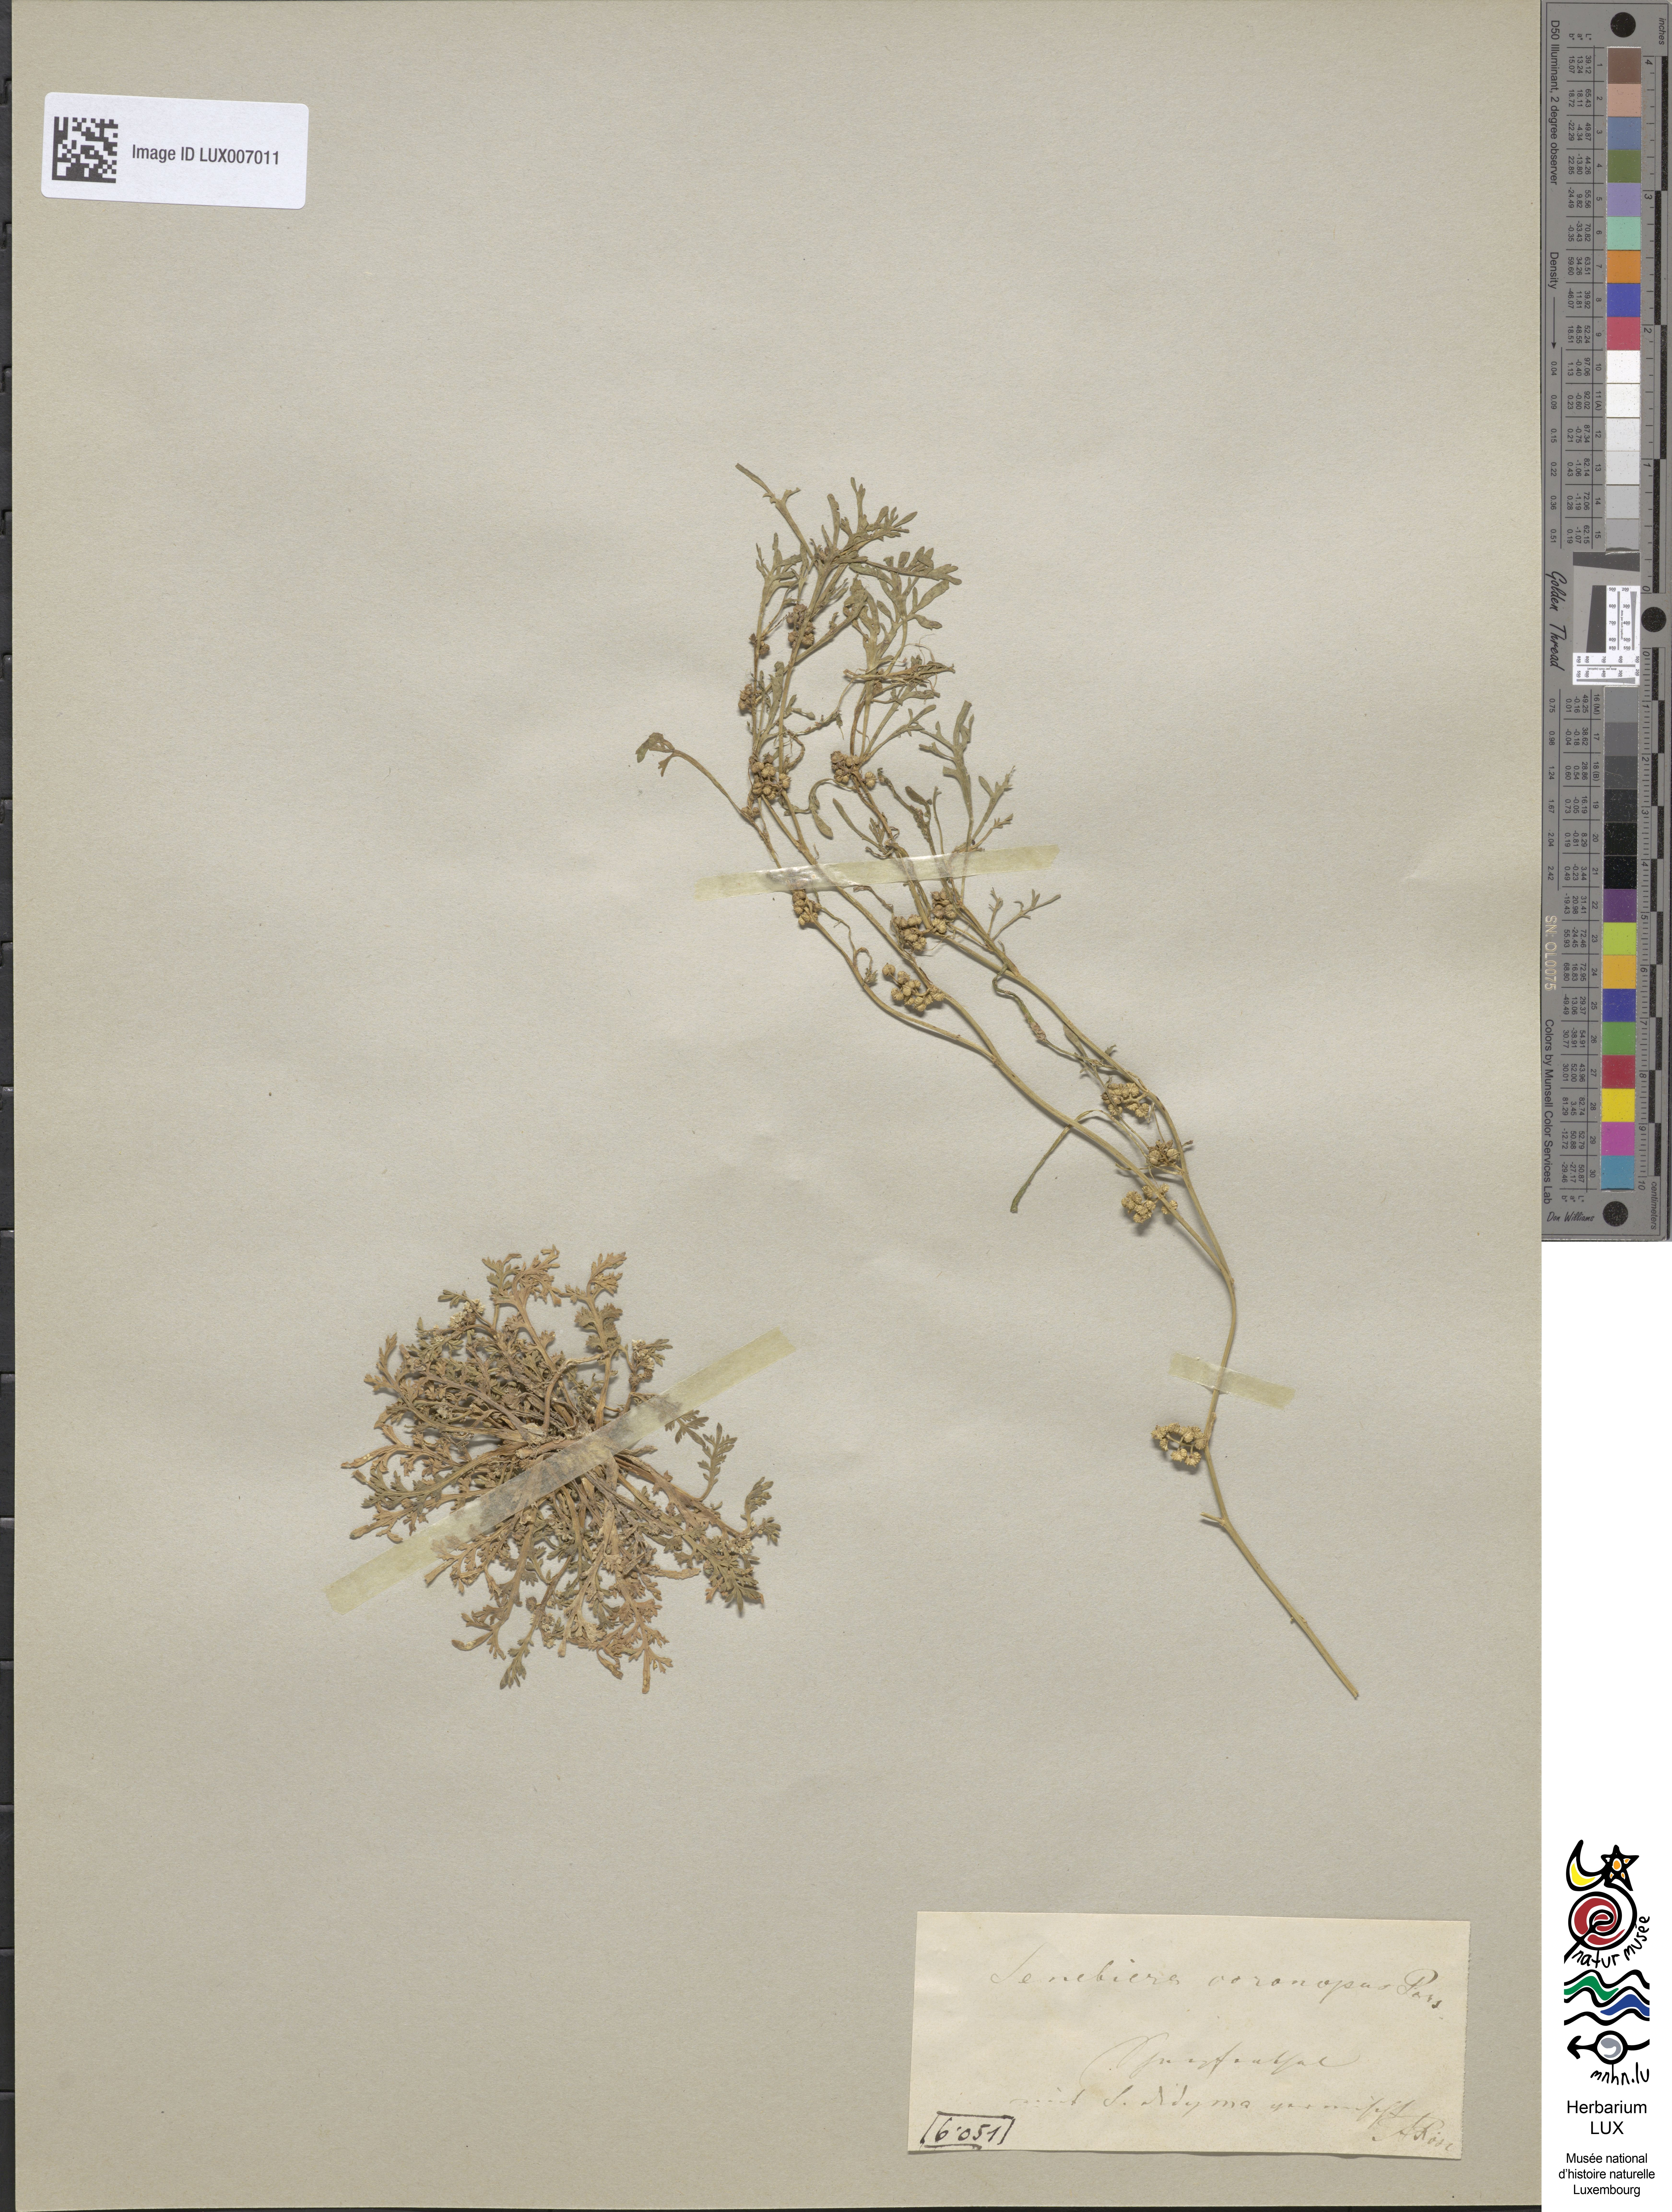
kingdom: Plantae
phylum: Tracheophyta
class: Magnoliopsida
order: Brassicales
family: Brassicaceae
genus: Lepidium
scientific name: Lepidium coronopus
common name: Greater swinecress
